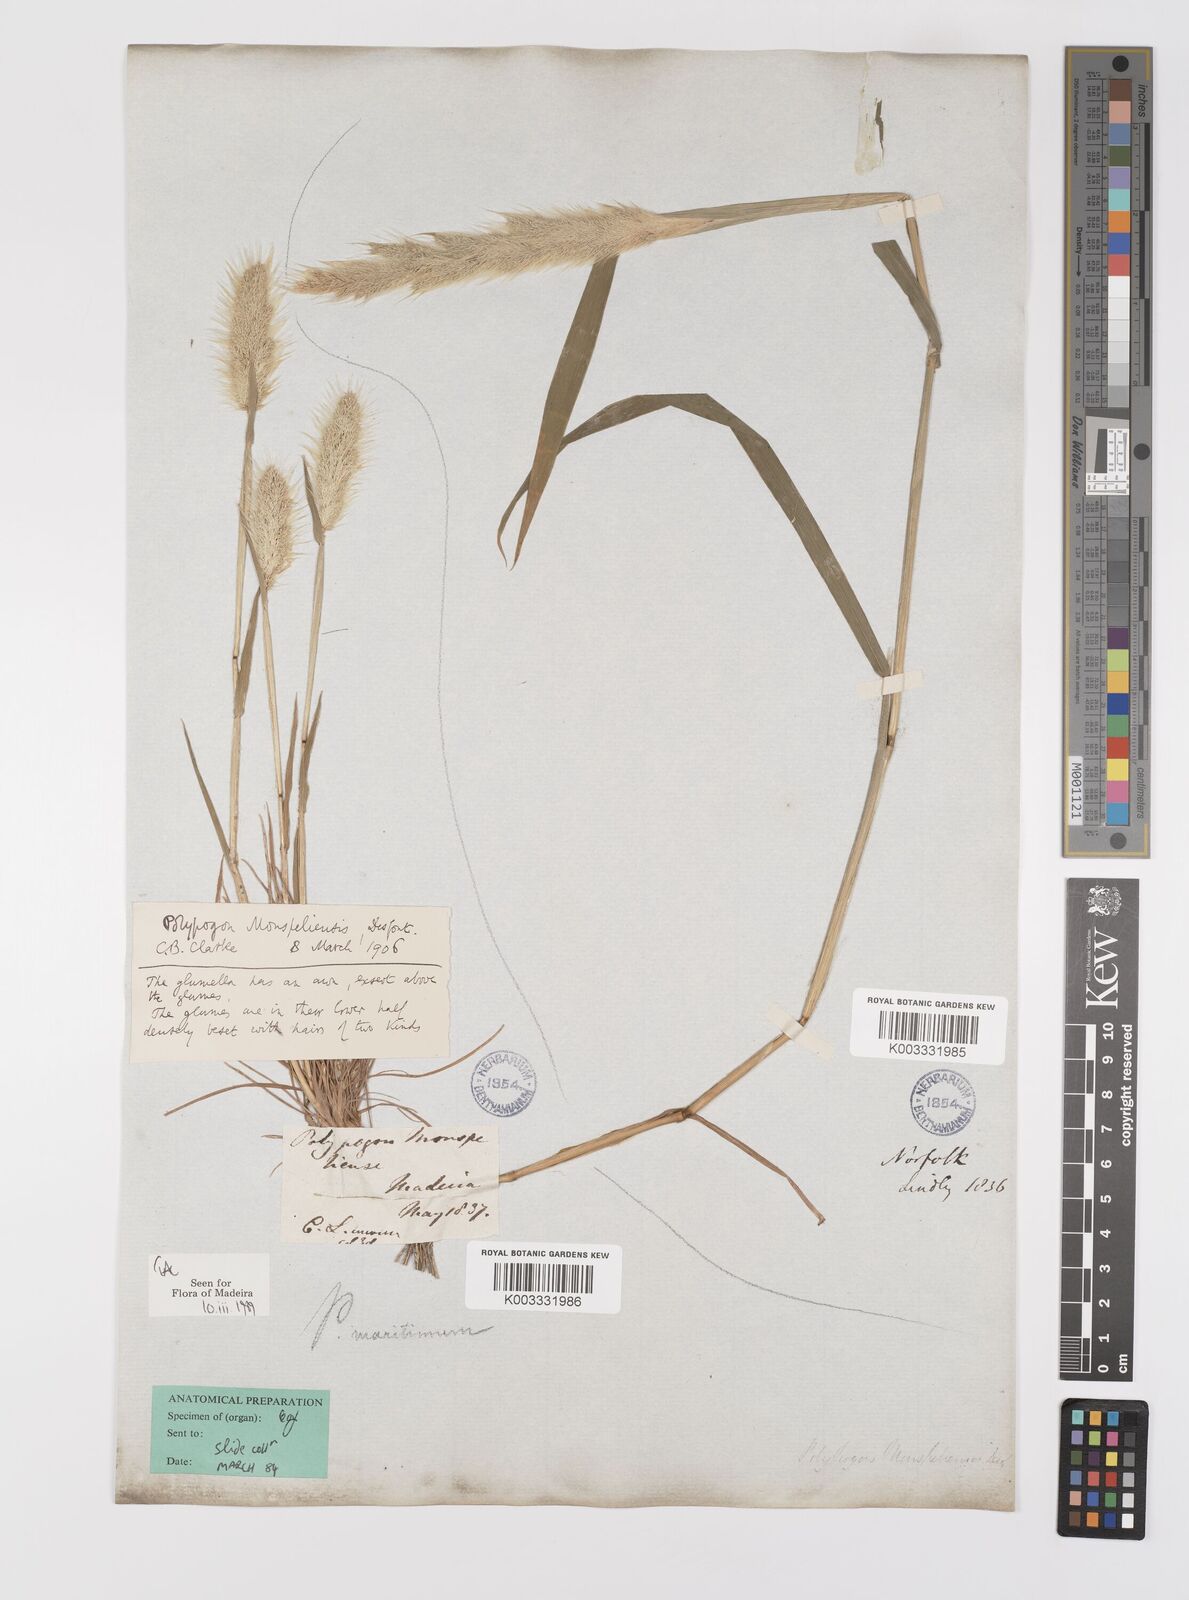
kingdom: Plantae
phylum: Tracheophyta
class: Liliopsida
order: Poales
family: Poaceae
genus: Polypogon
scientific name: Polypogon monspeliensis
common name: Annual rabbitsfoot grass
